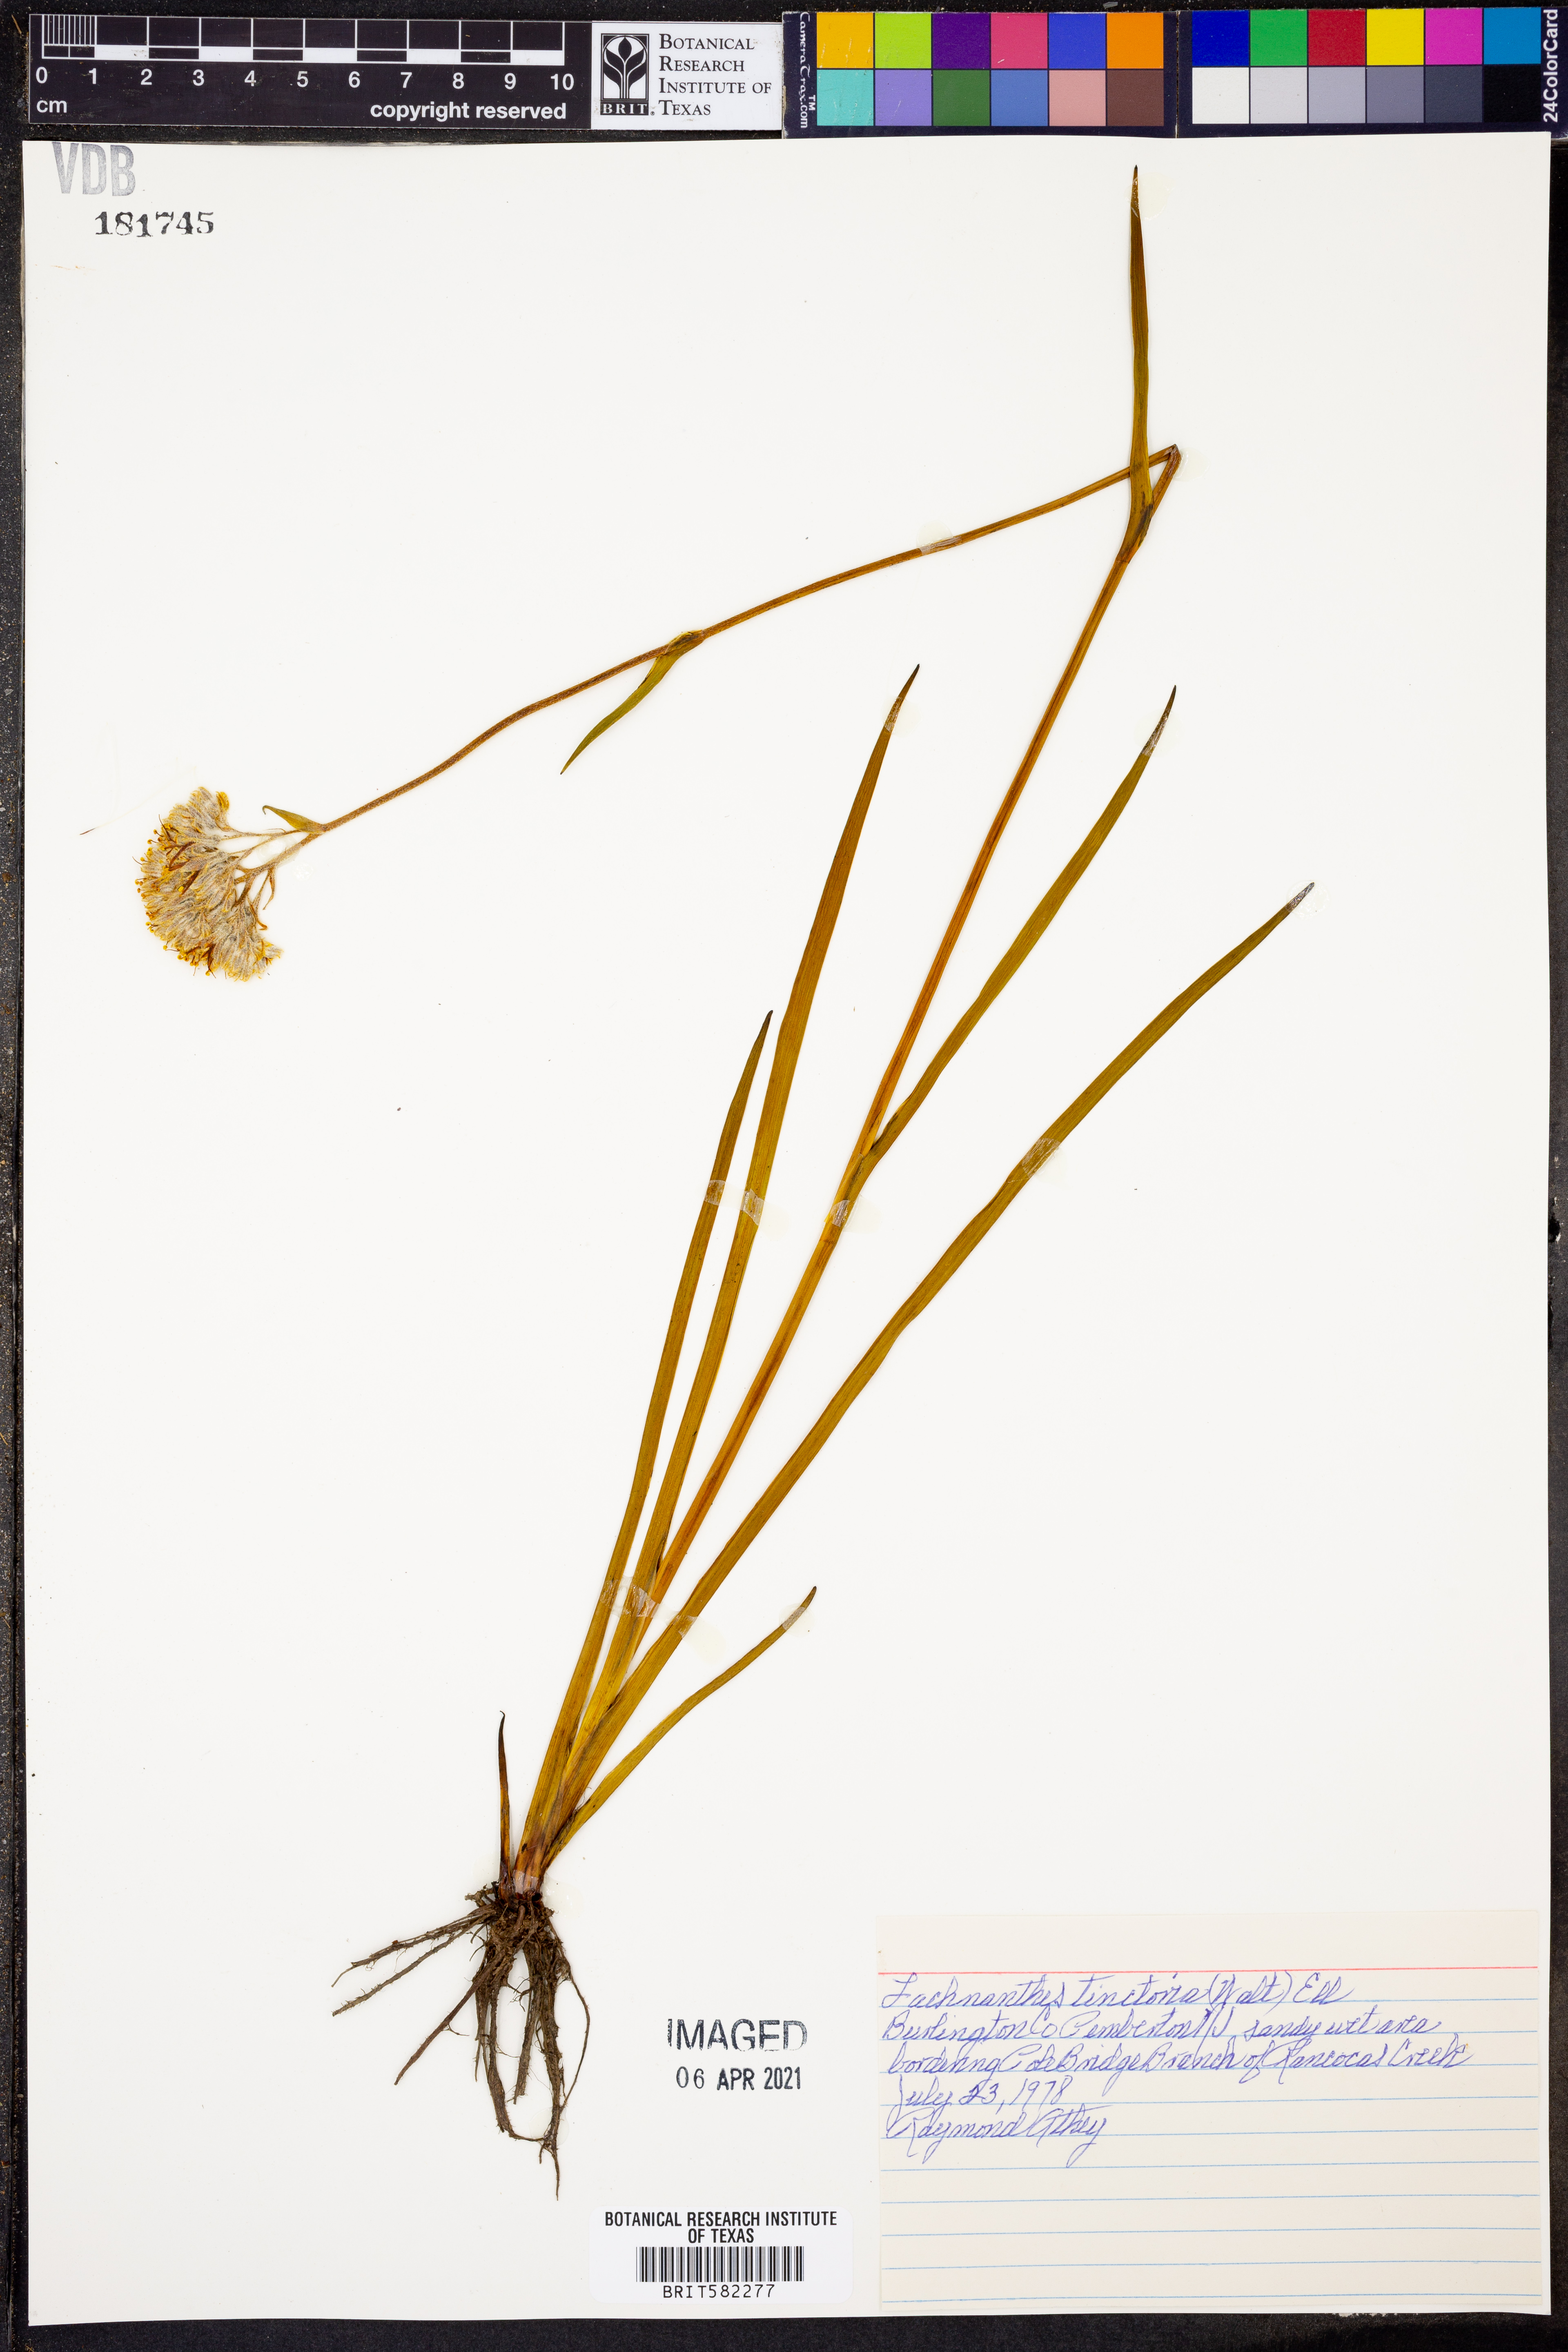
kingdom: Plantae
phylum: Tracheophyta
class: Liliopsida
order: Commelinales
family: Haemodoraceae
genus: Lachnanthes
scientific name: Lachnanthes caroliniana
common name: Carolina redroot
